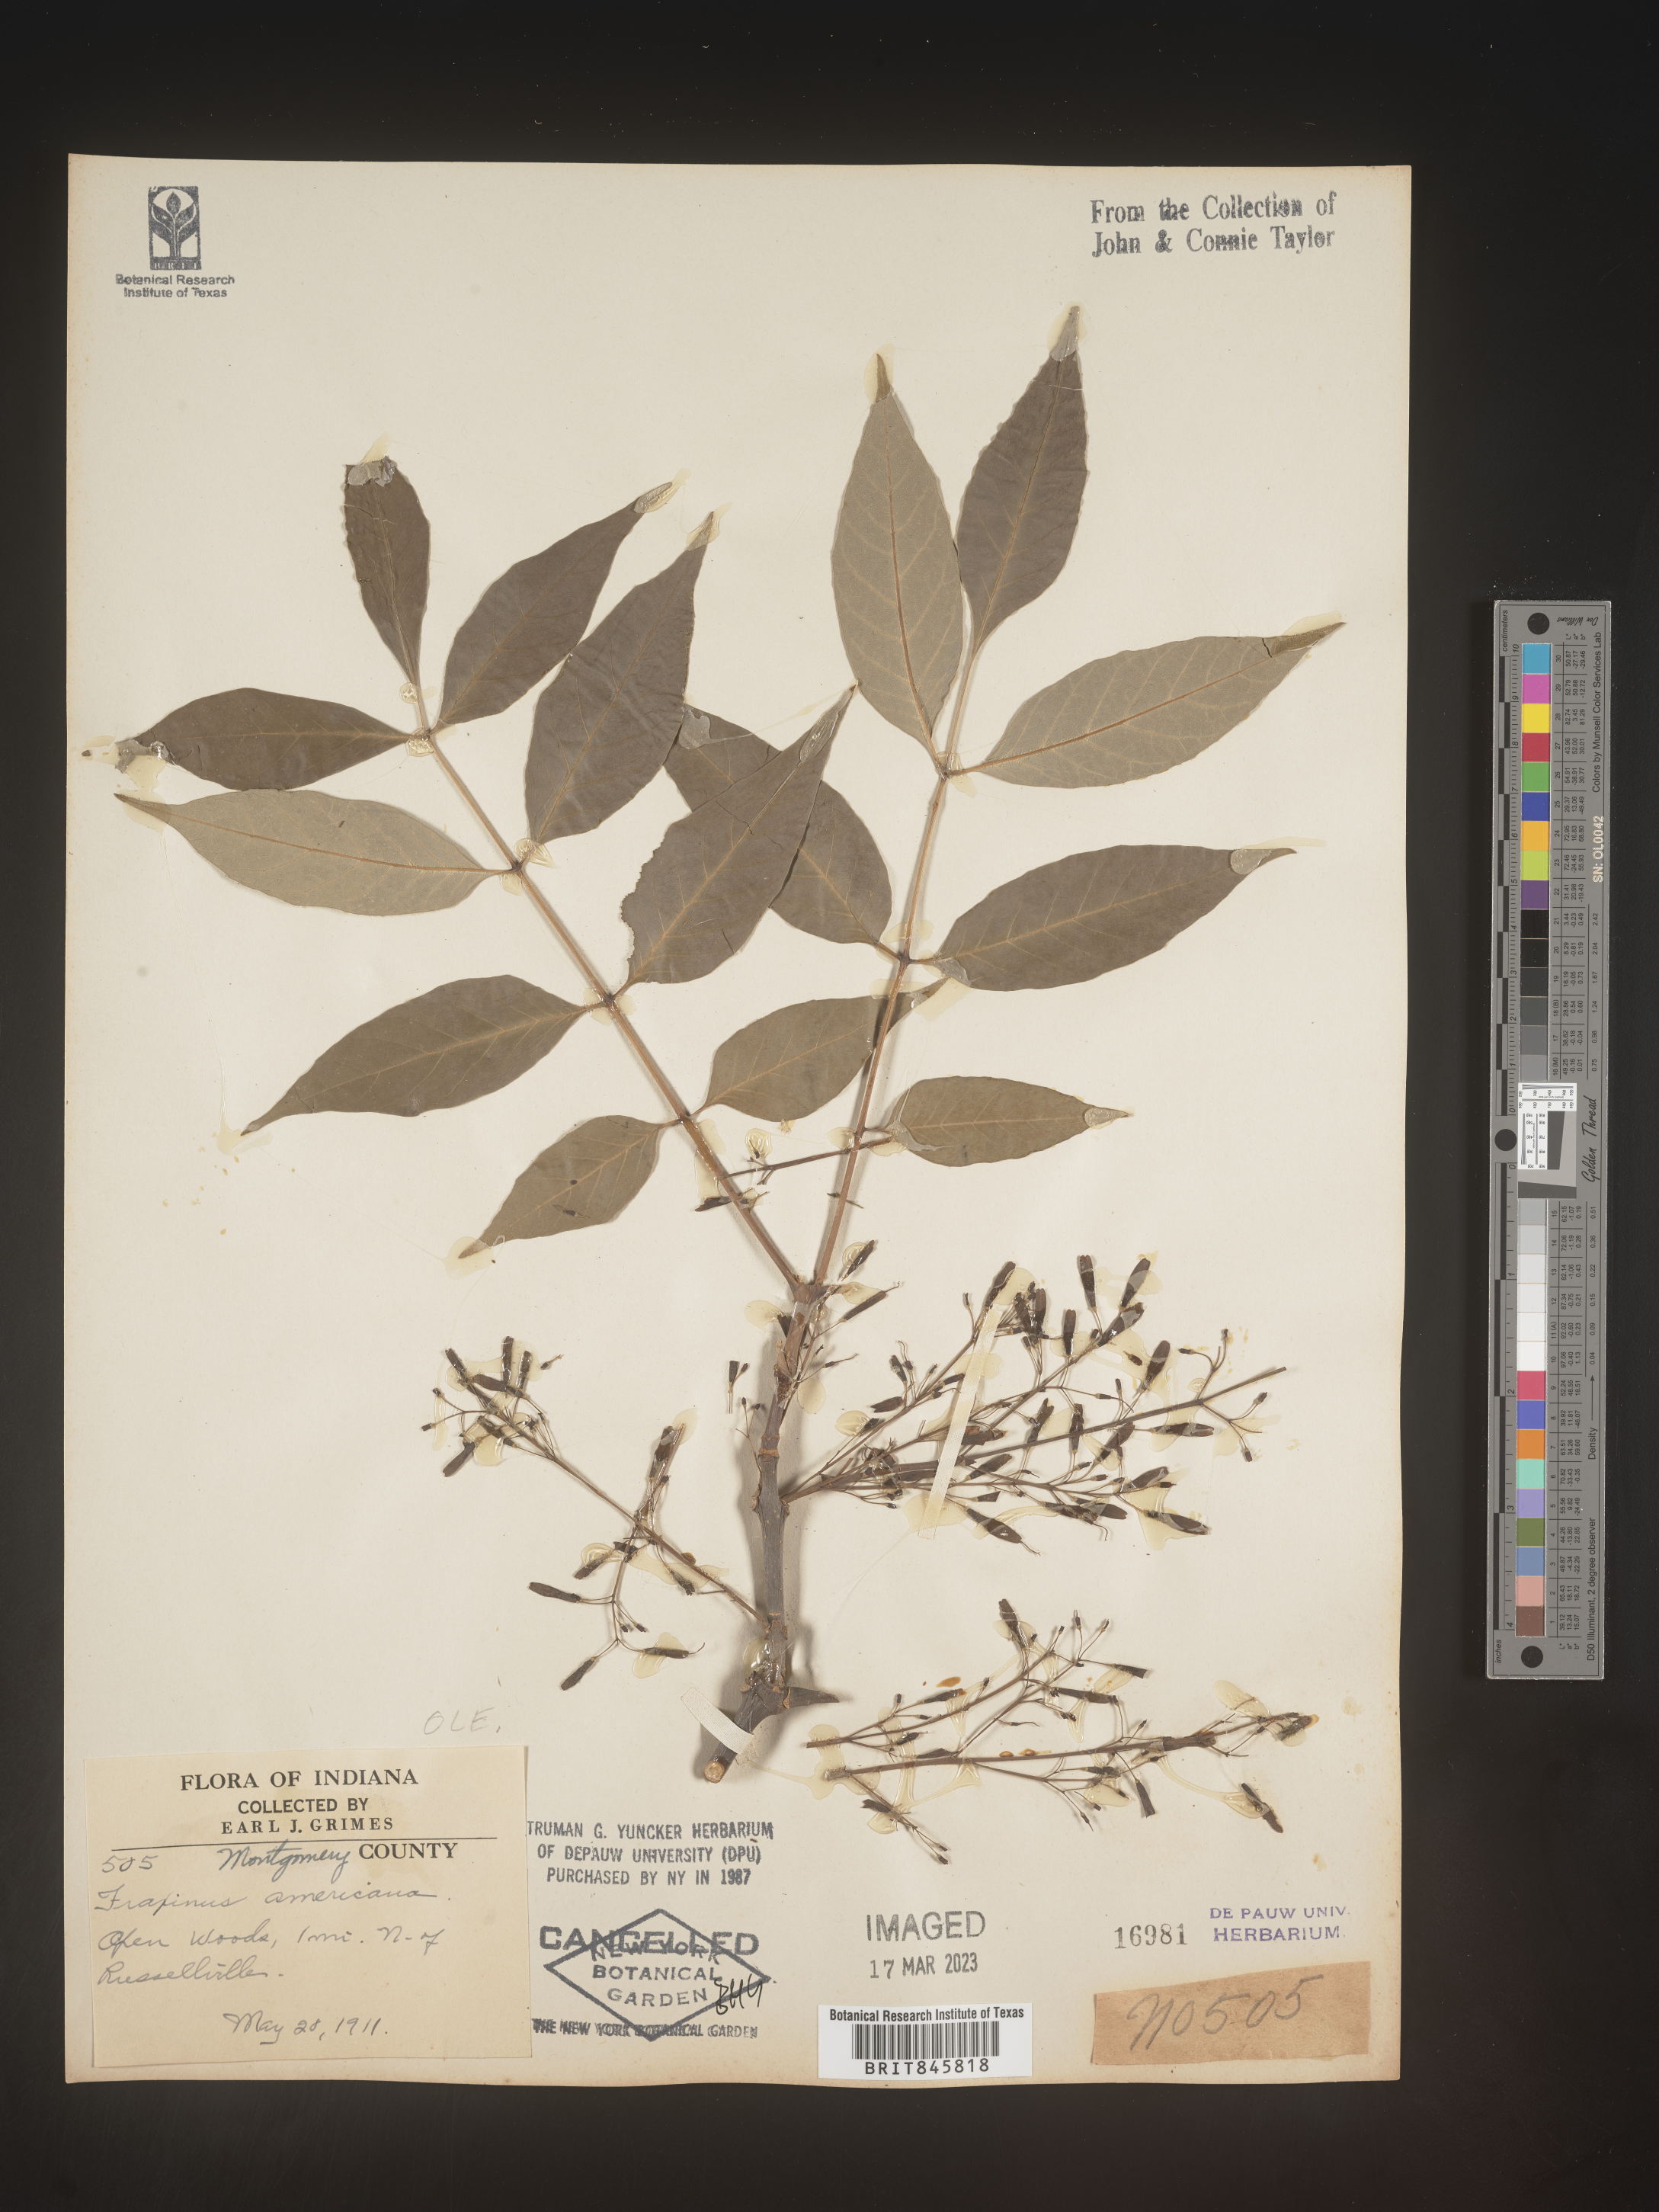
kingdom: Plantae
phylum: Tracheophyta
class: Magnoliopsida
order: Lamiales
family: Oleaceae
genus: Fraxinus
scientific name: Fraxinus americana
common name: White ash
